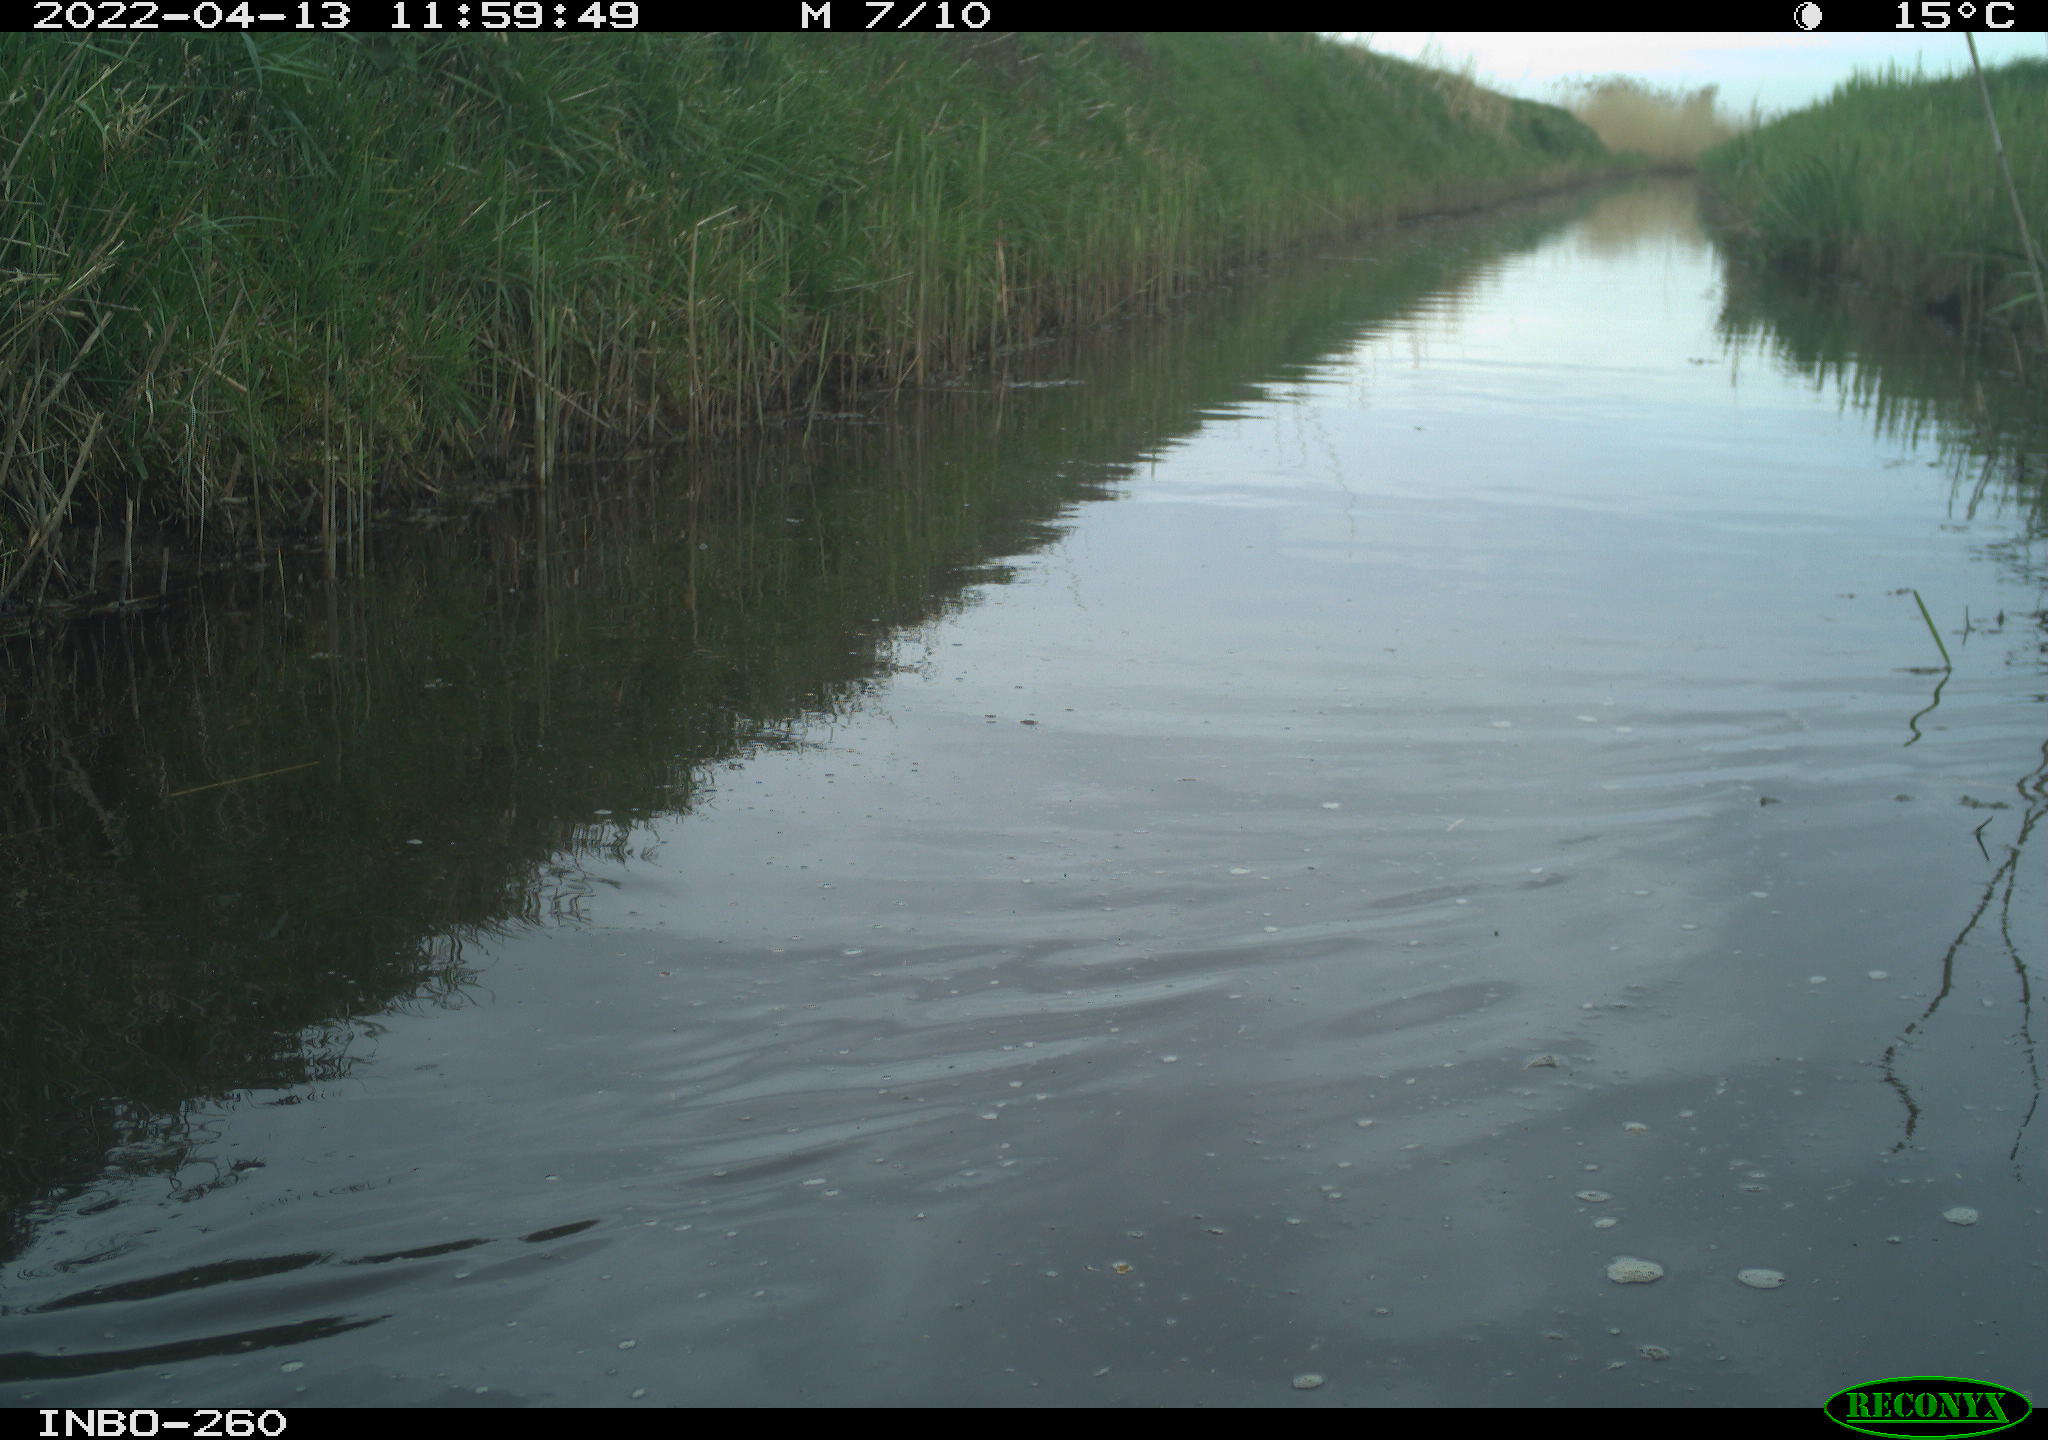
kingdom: Animalia
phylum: Chordata
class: Aves
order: Gruiformes
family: Rallidae
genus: Fulica
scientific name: Fulica atra
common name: Eurasian coot
